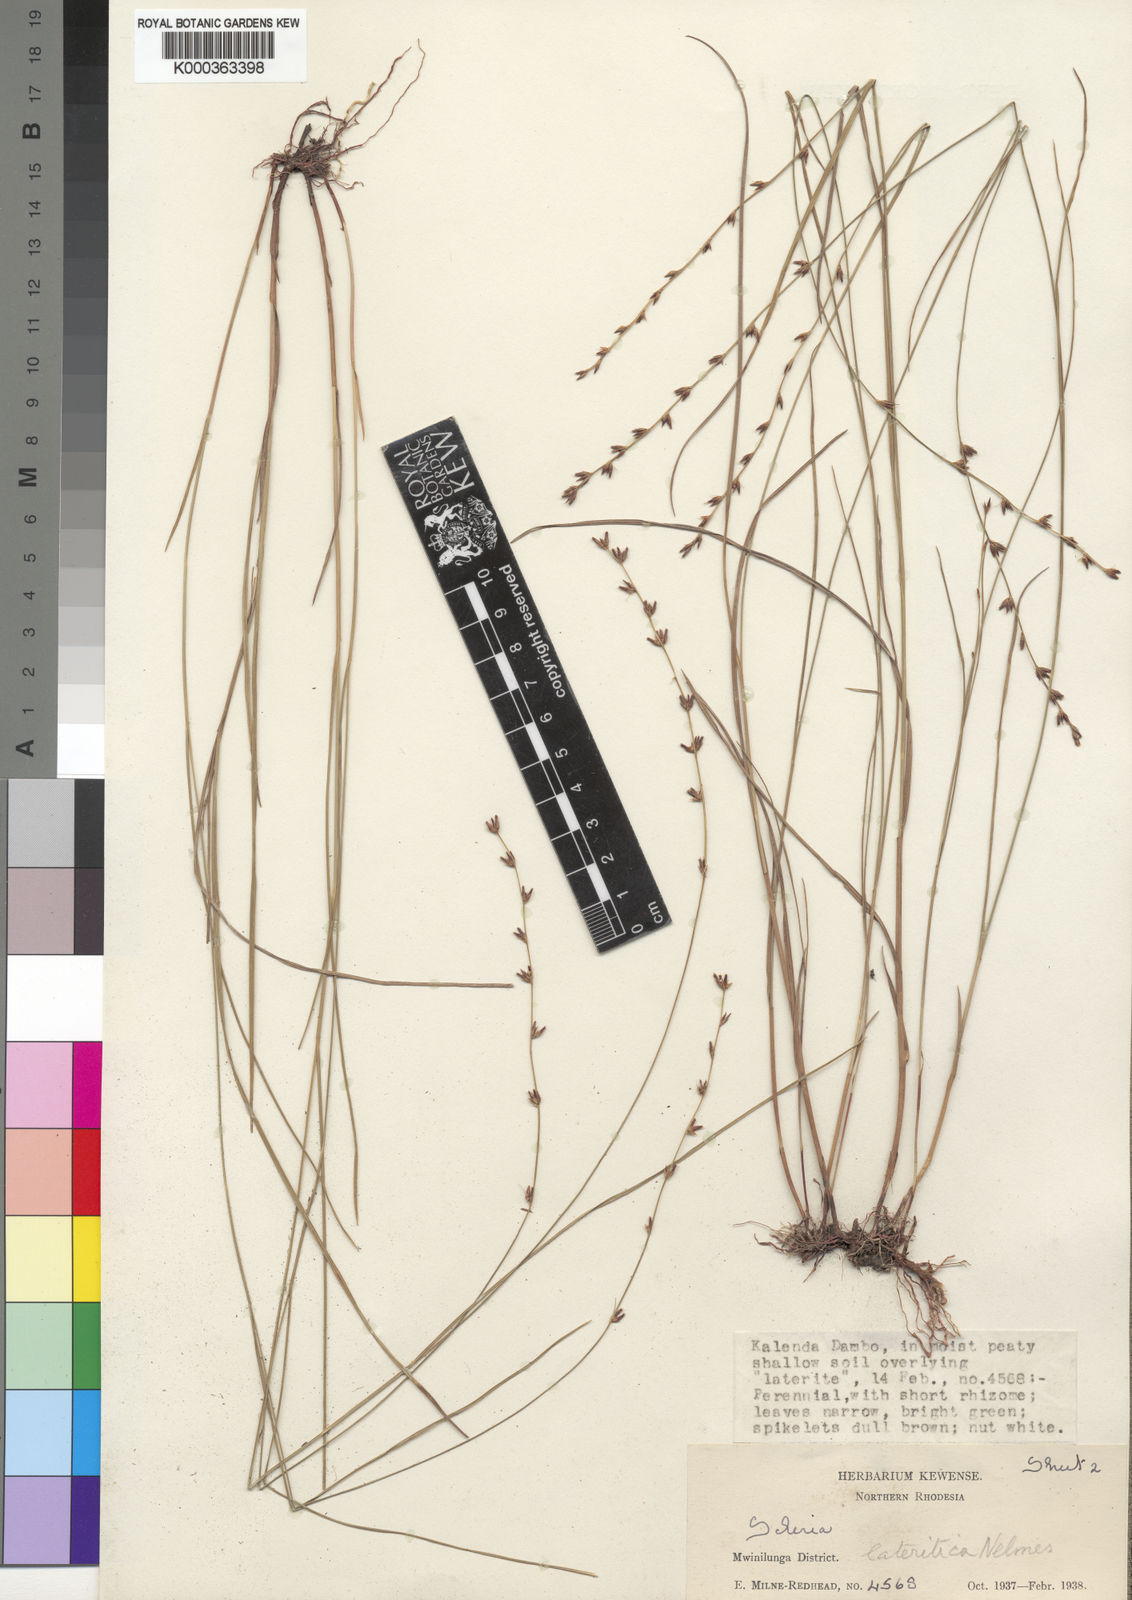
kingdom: Plantae
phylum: Tracheophyta
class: Liliopsida
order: Poales
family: Cyperaceae
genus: Scleria
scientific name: Scleria flexuosa
